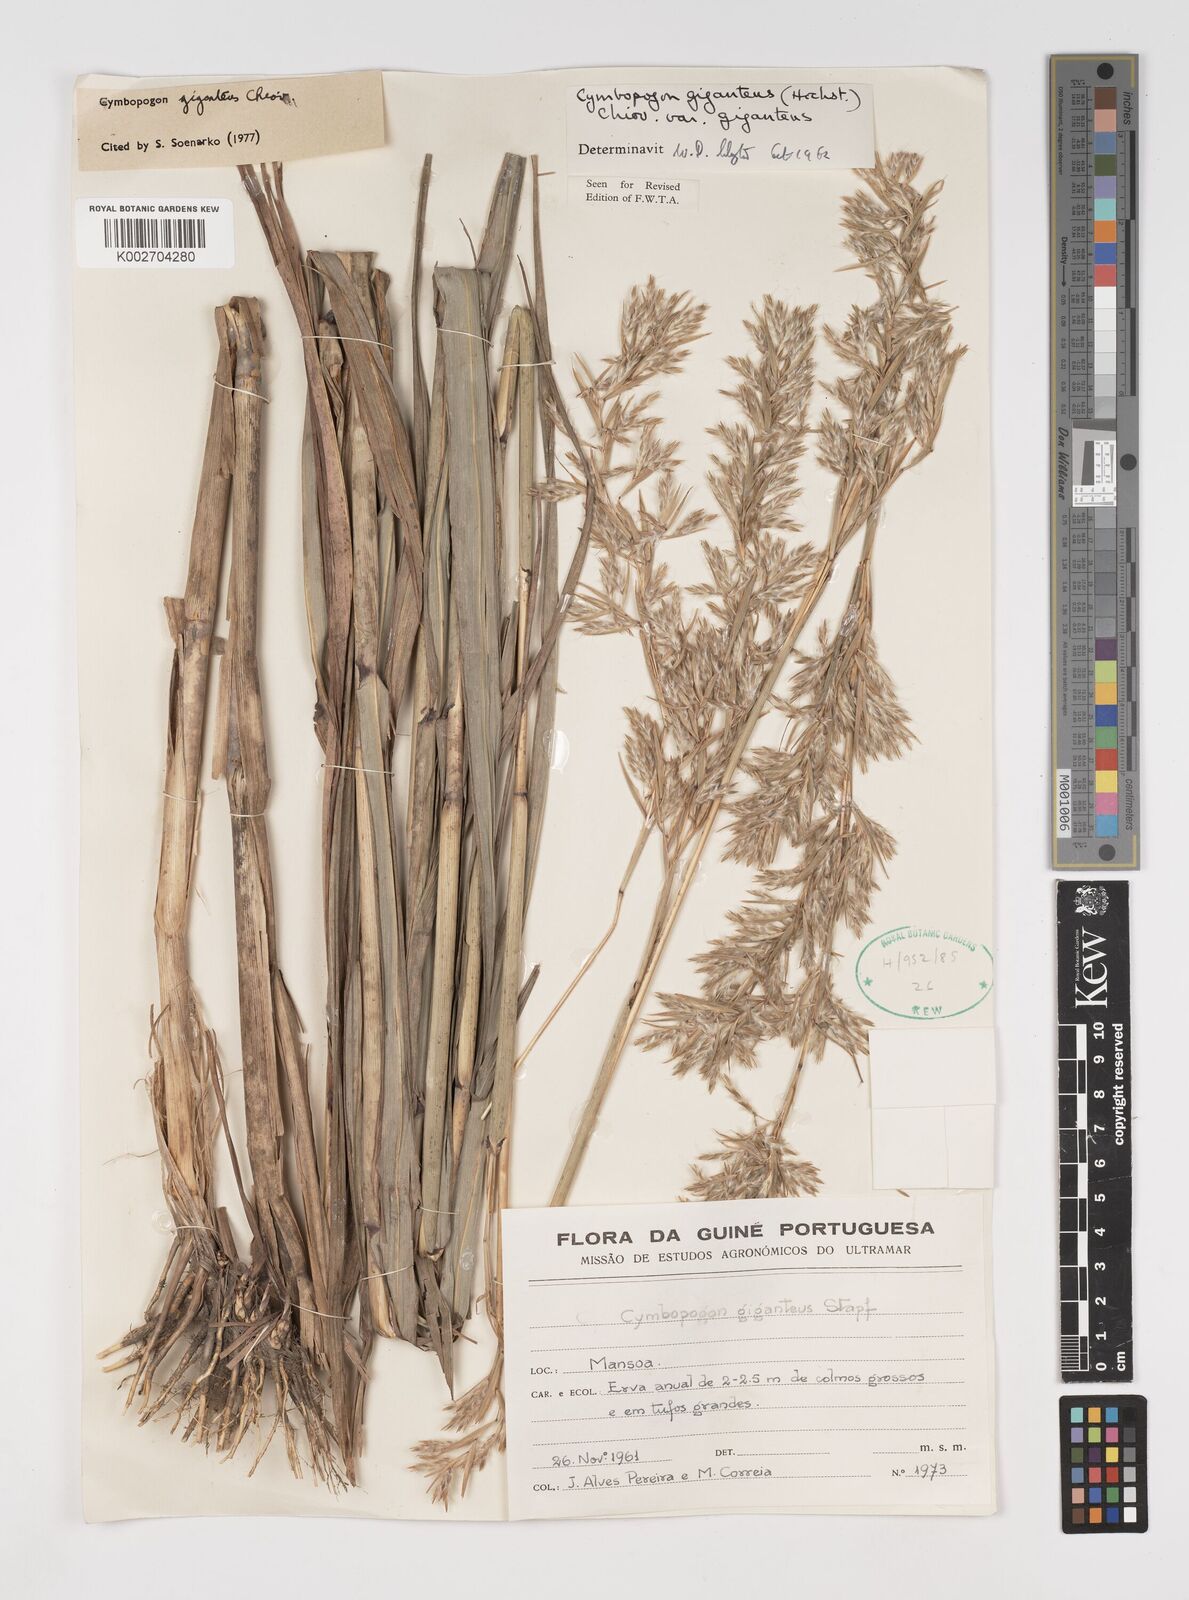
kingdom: Plantae
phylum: Tracheophyta
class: Liliopsida
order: Poales
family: Poaceae
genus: Cymbopogon
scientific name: Cymbopogon giganteus
